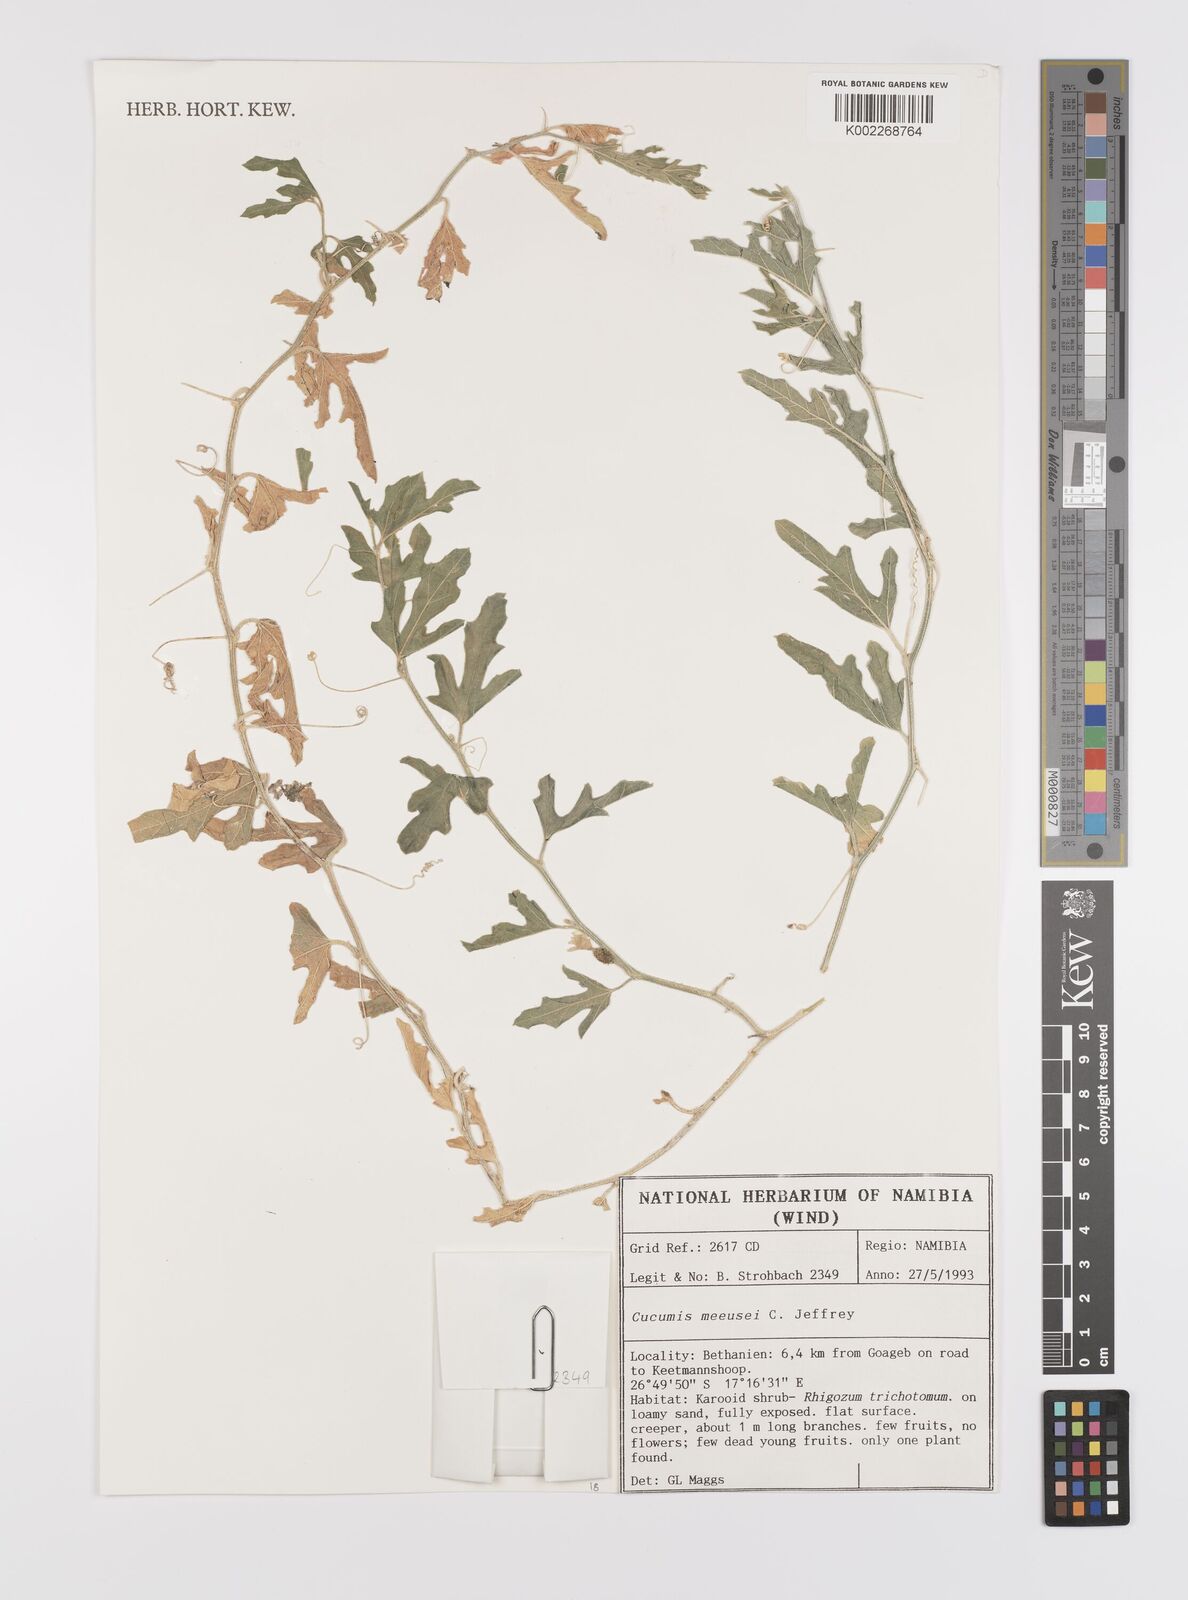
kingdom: Plantae
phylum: Tracheophyta
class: Magnoliopsida
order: Cucurbitales
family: Cucurbitaceae
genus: Cucumis
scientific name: Cucumis meeusei
